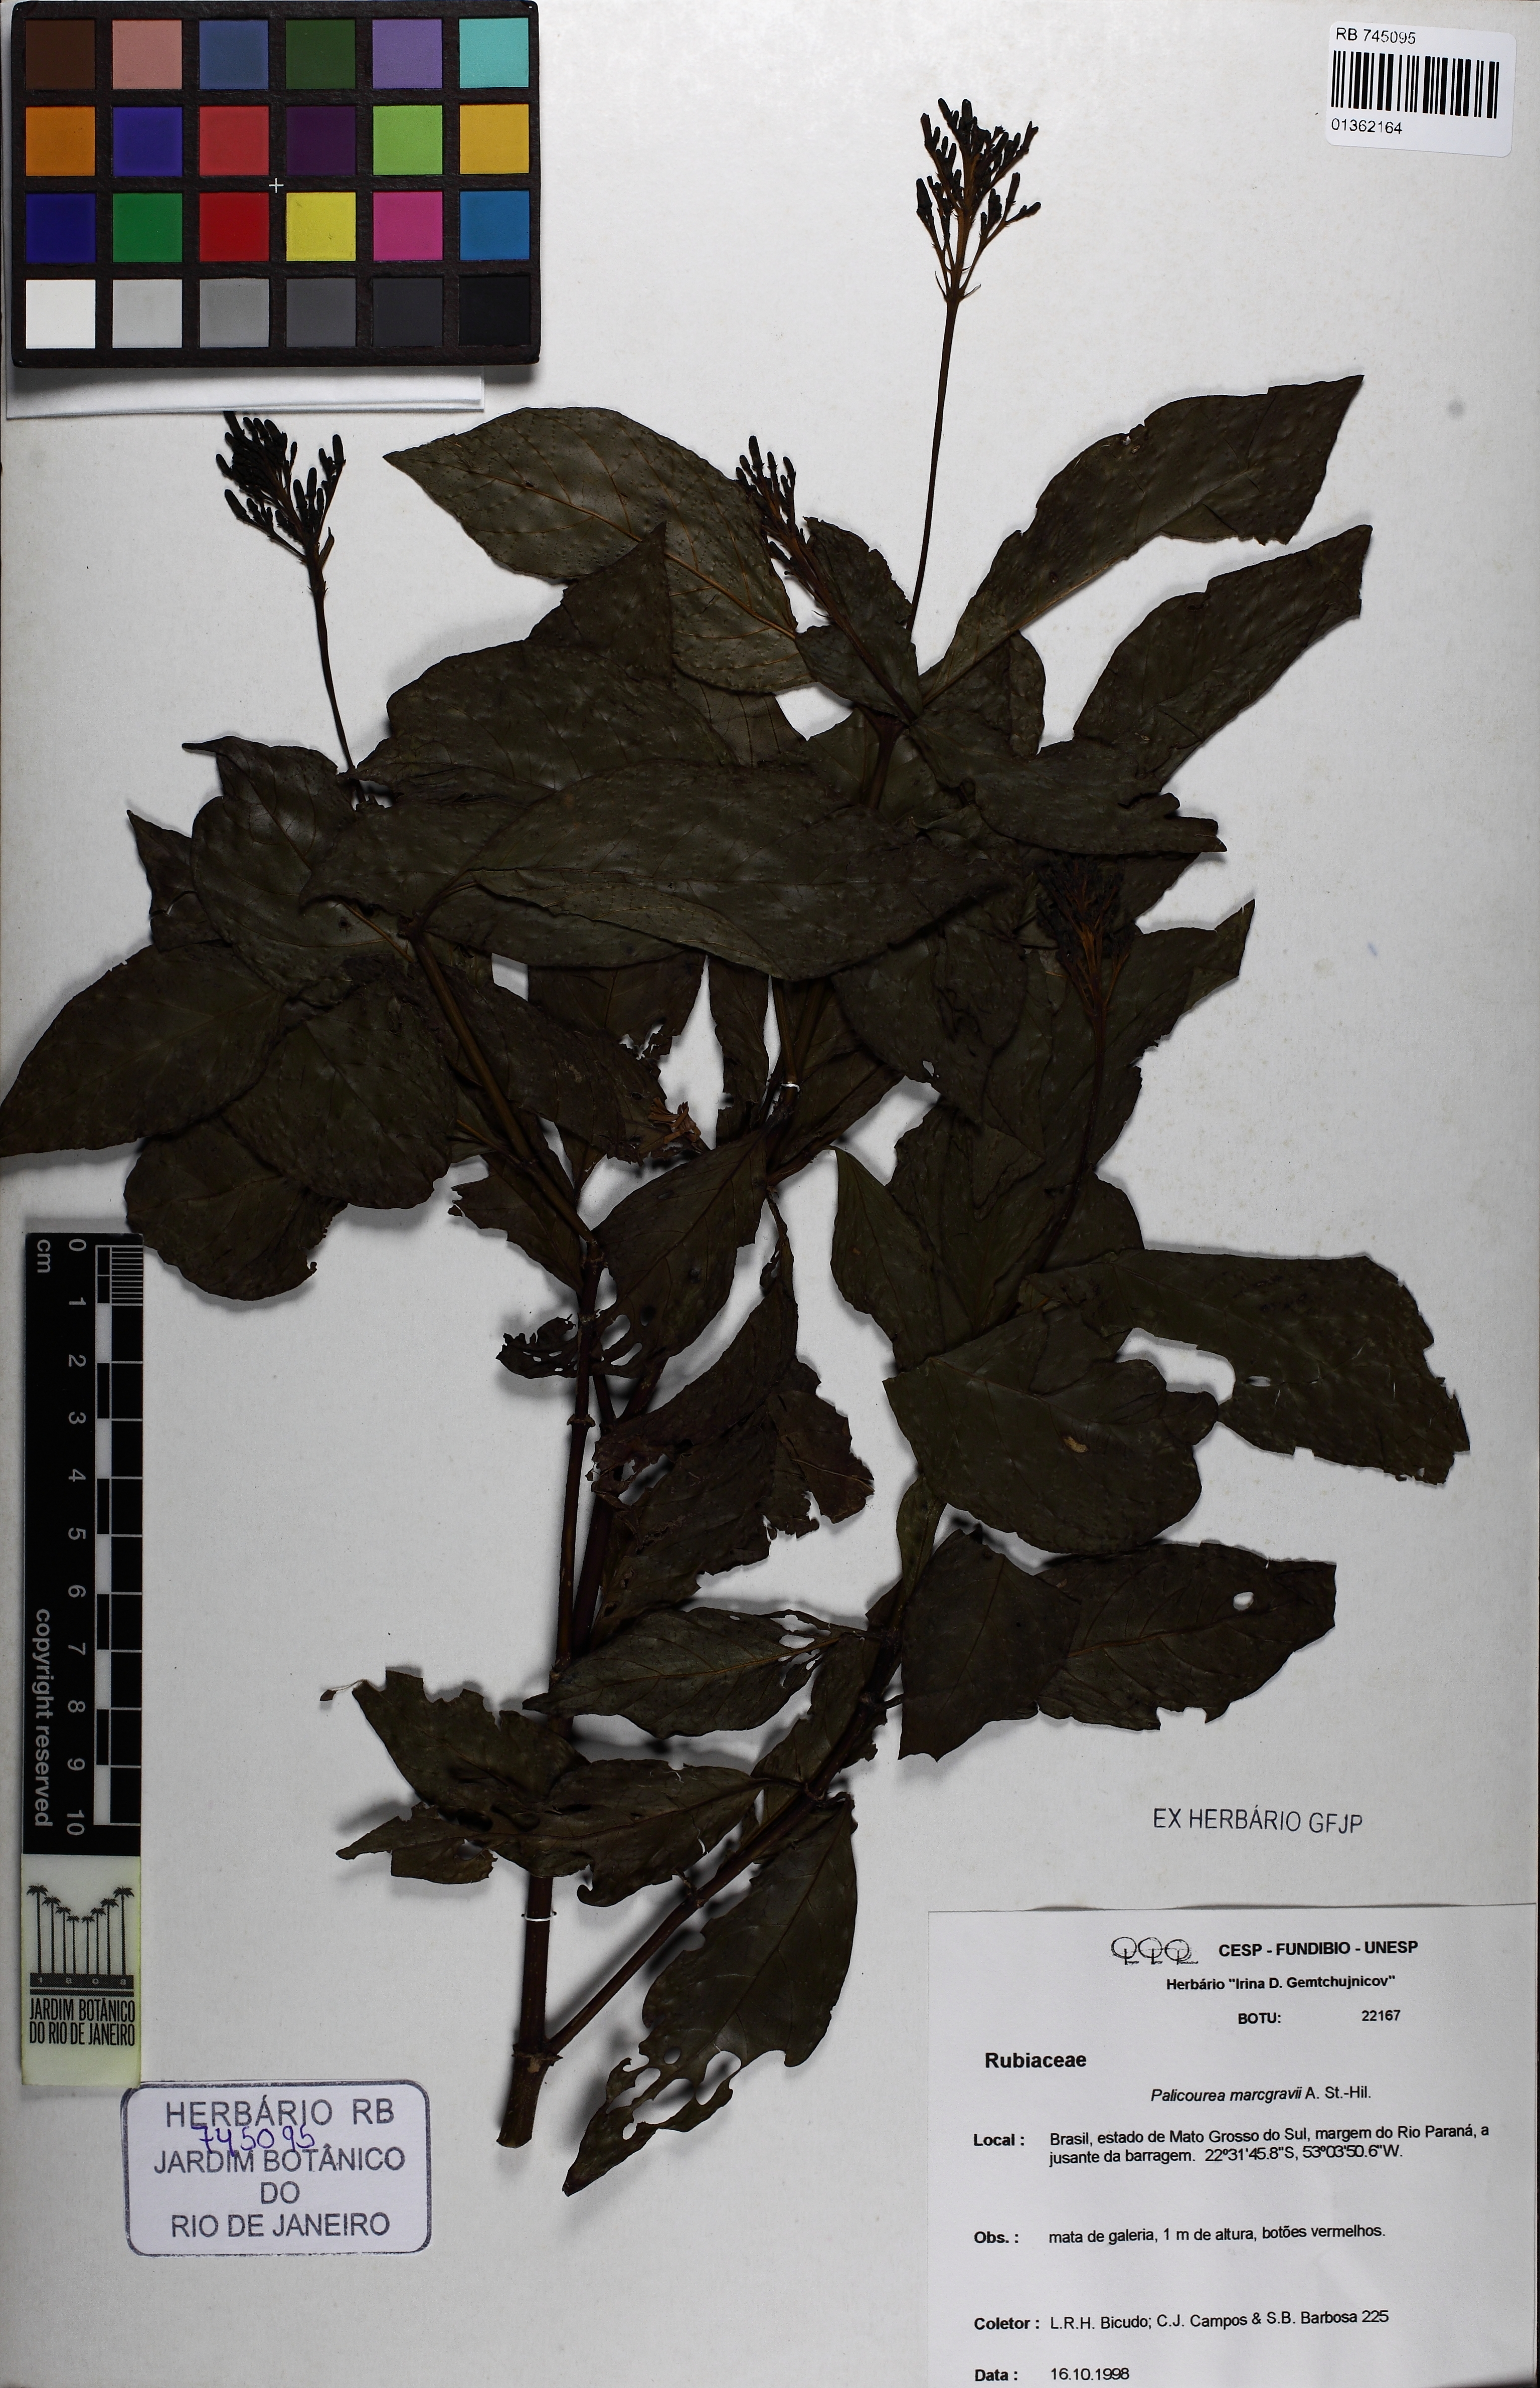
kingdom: Plantae
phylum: Tracheophyta
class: Magnoliopsida
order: Gentianales
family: Rubiaceae
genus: Palicourea
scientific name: Palicourea marcgravii
